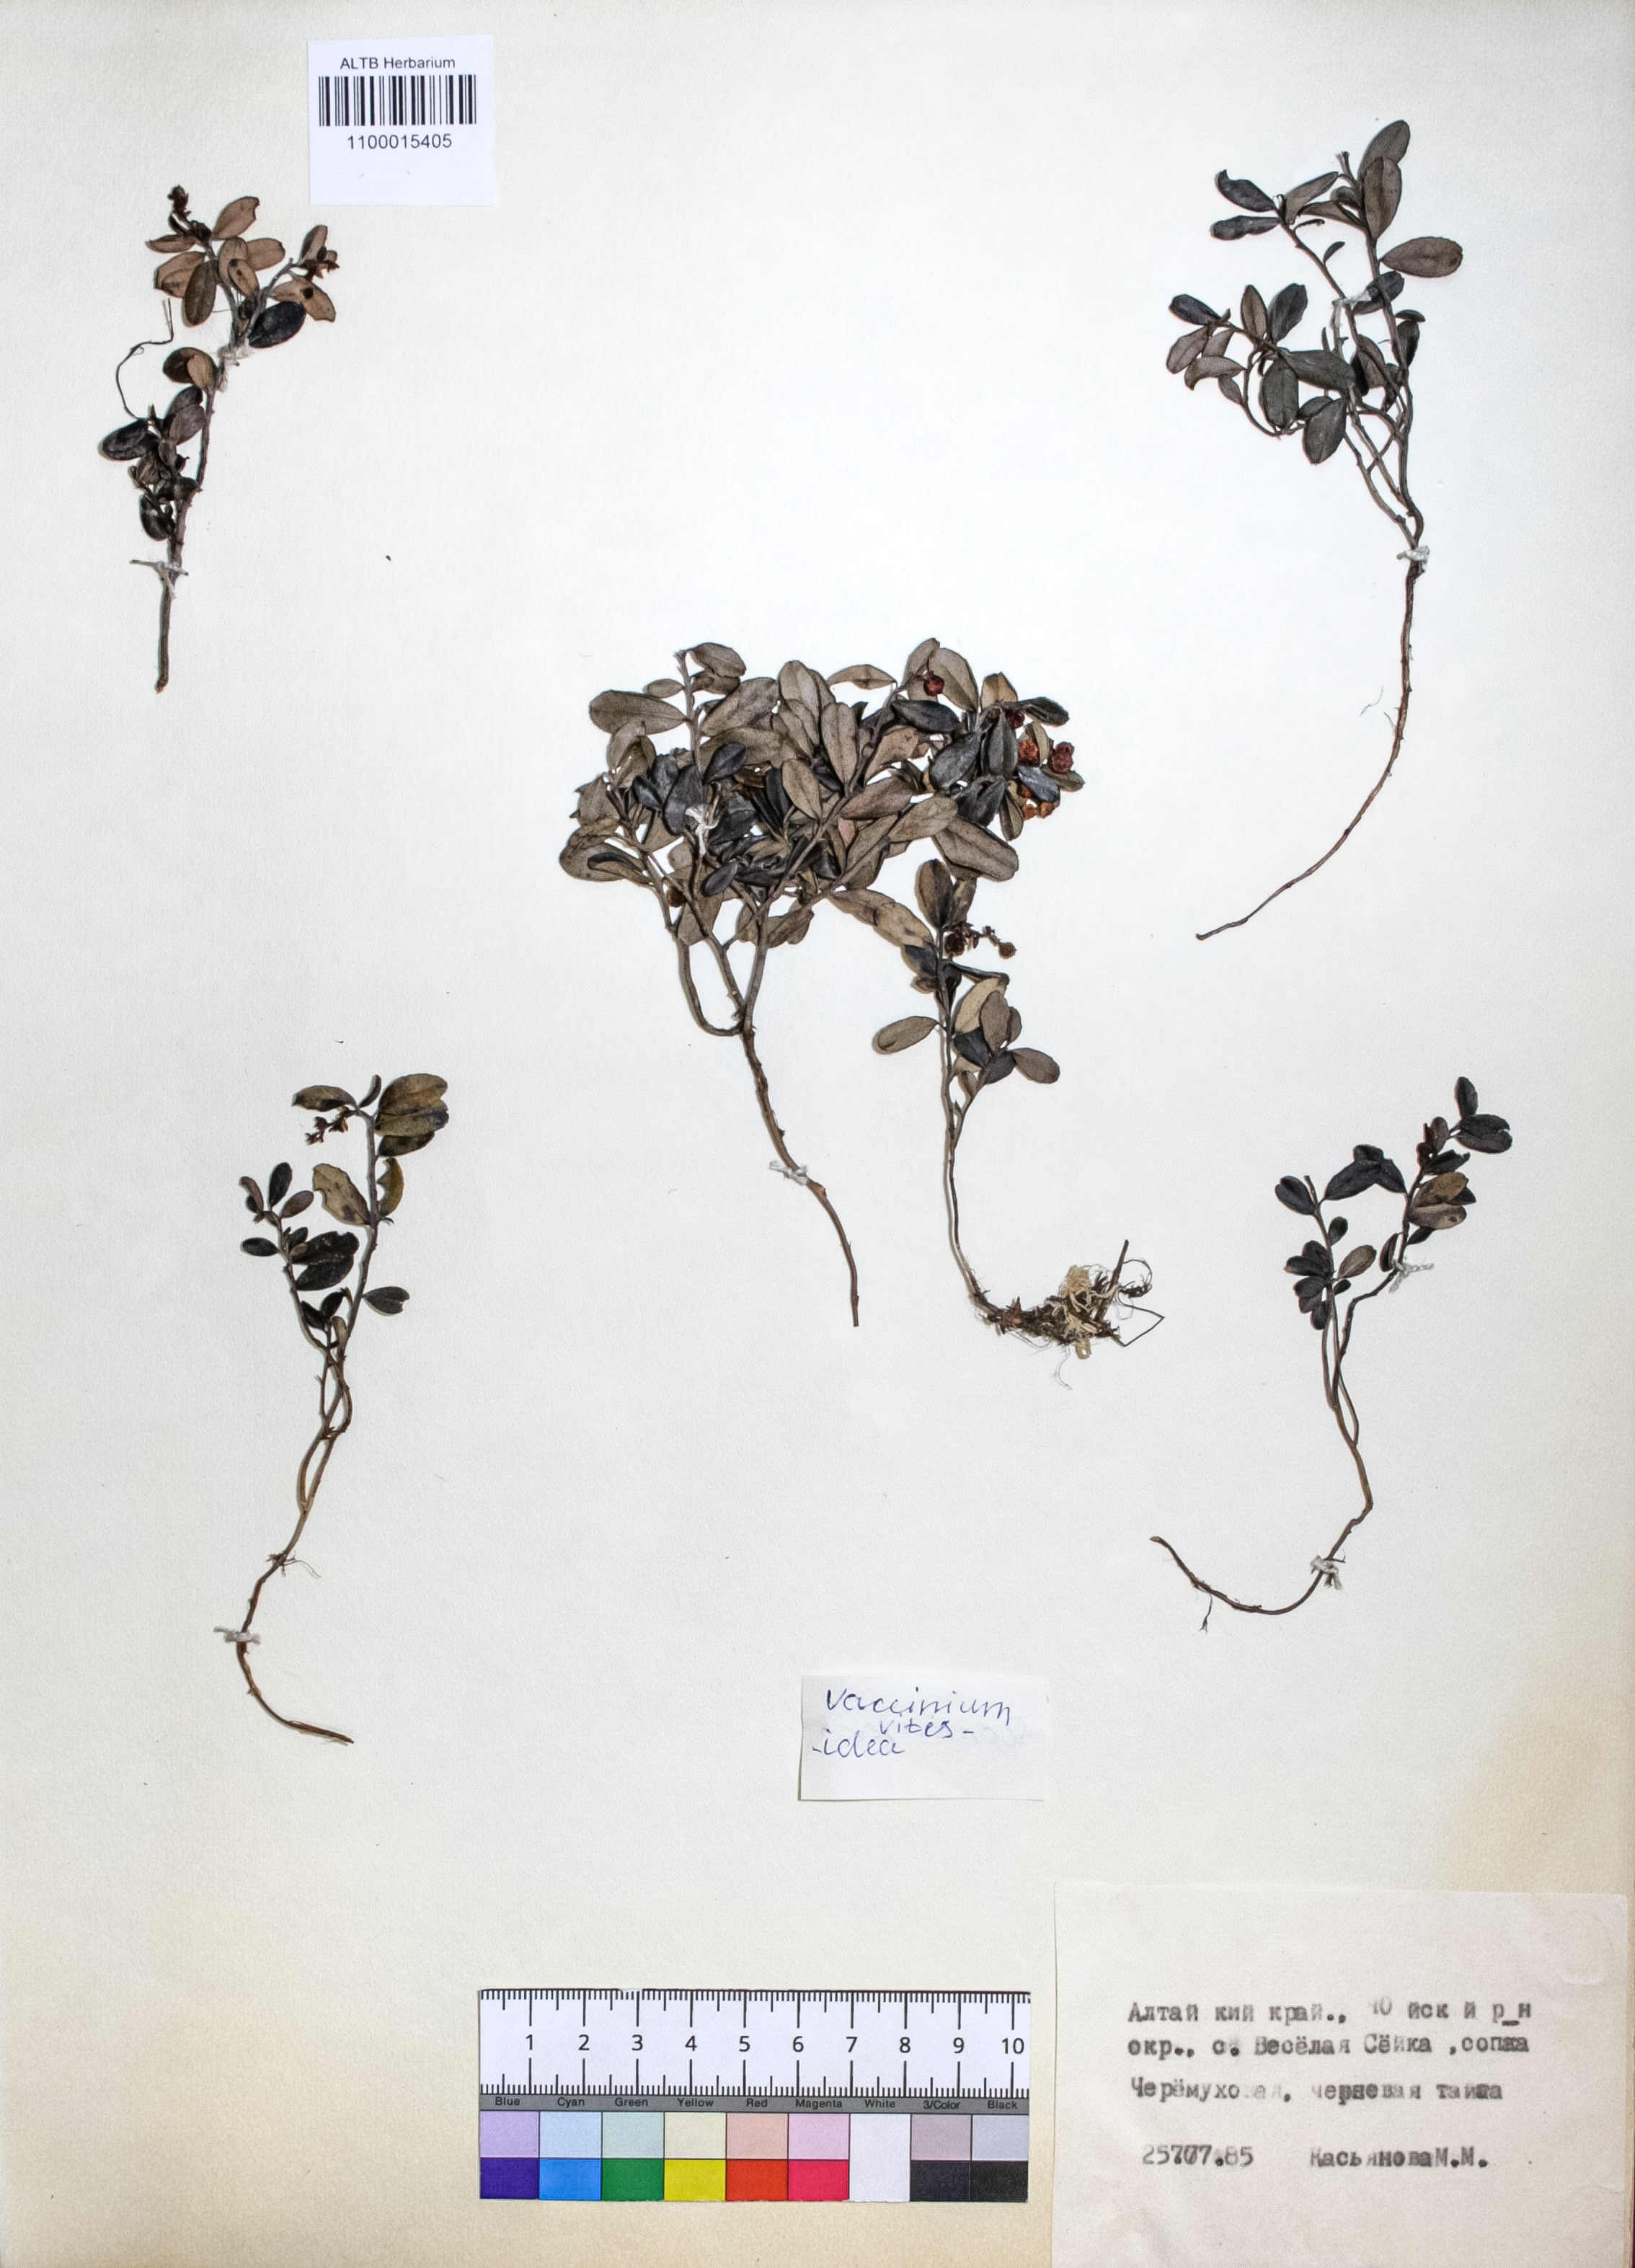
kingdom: Plantae
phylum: Tracheophyta
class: Magnoliopsida
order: Ericales
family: Ericaceae
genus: Vaccinium
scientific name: Vaccinium vitis-idaea
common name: Cowberry
